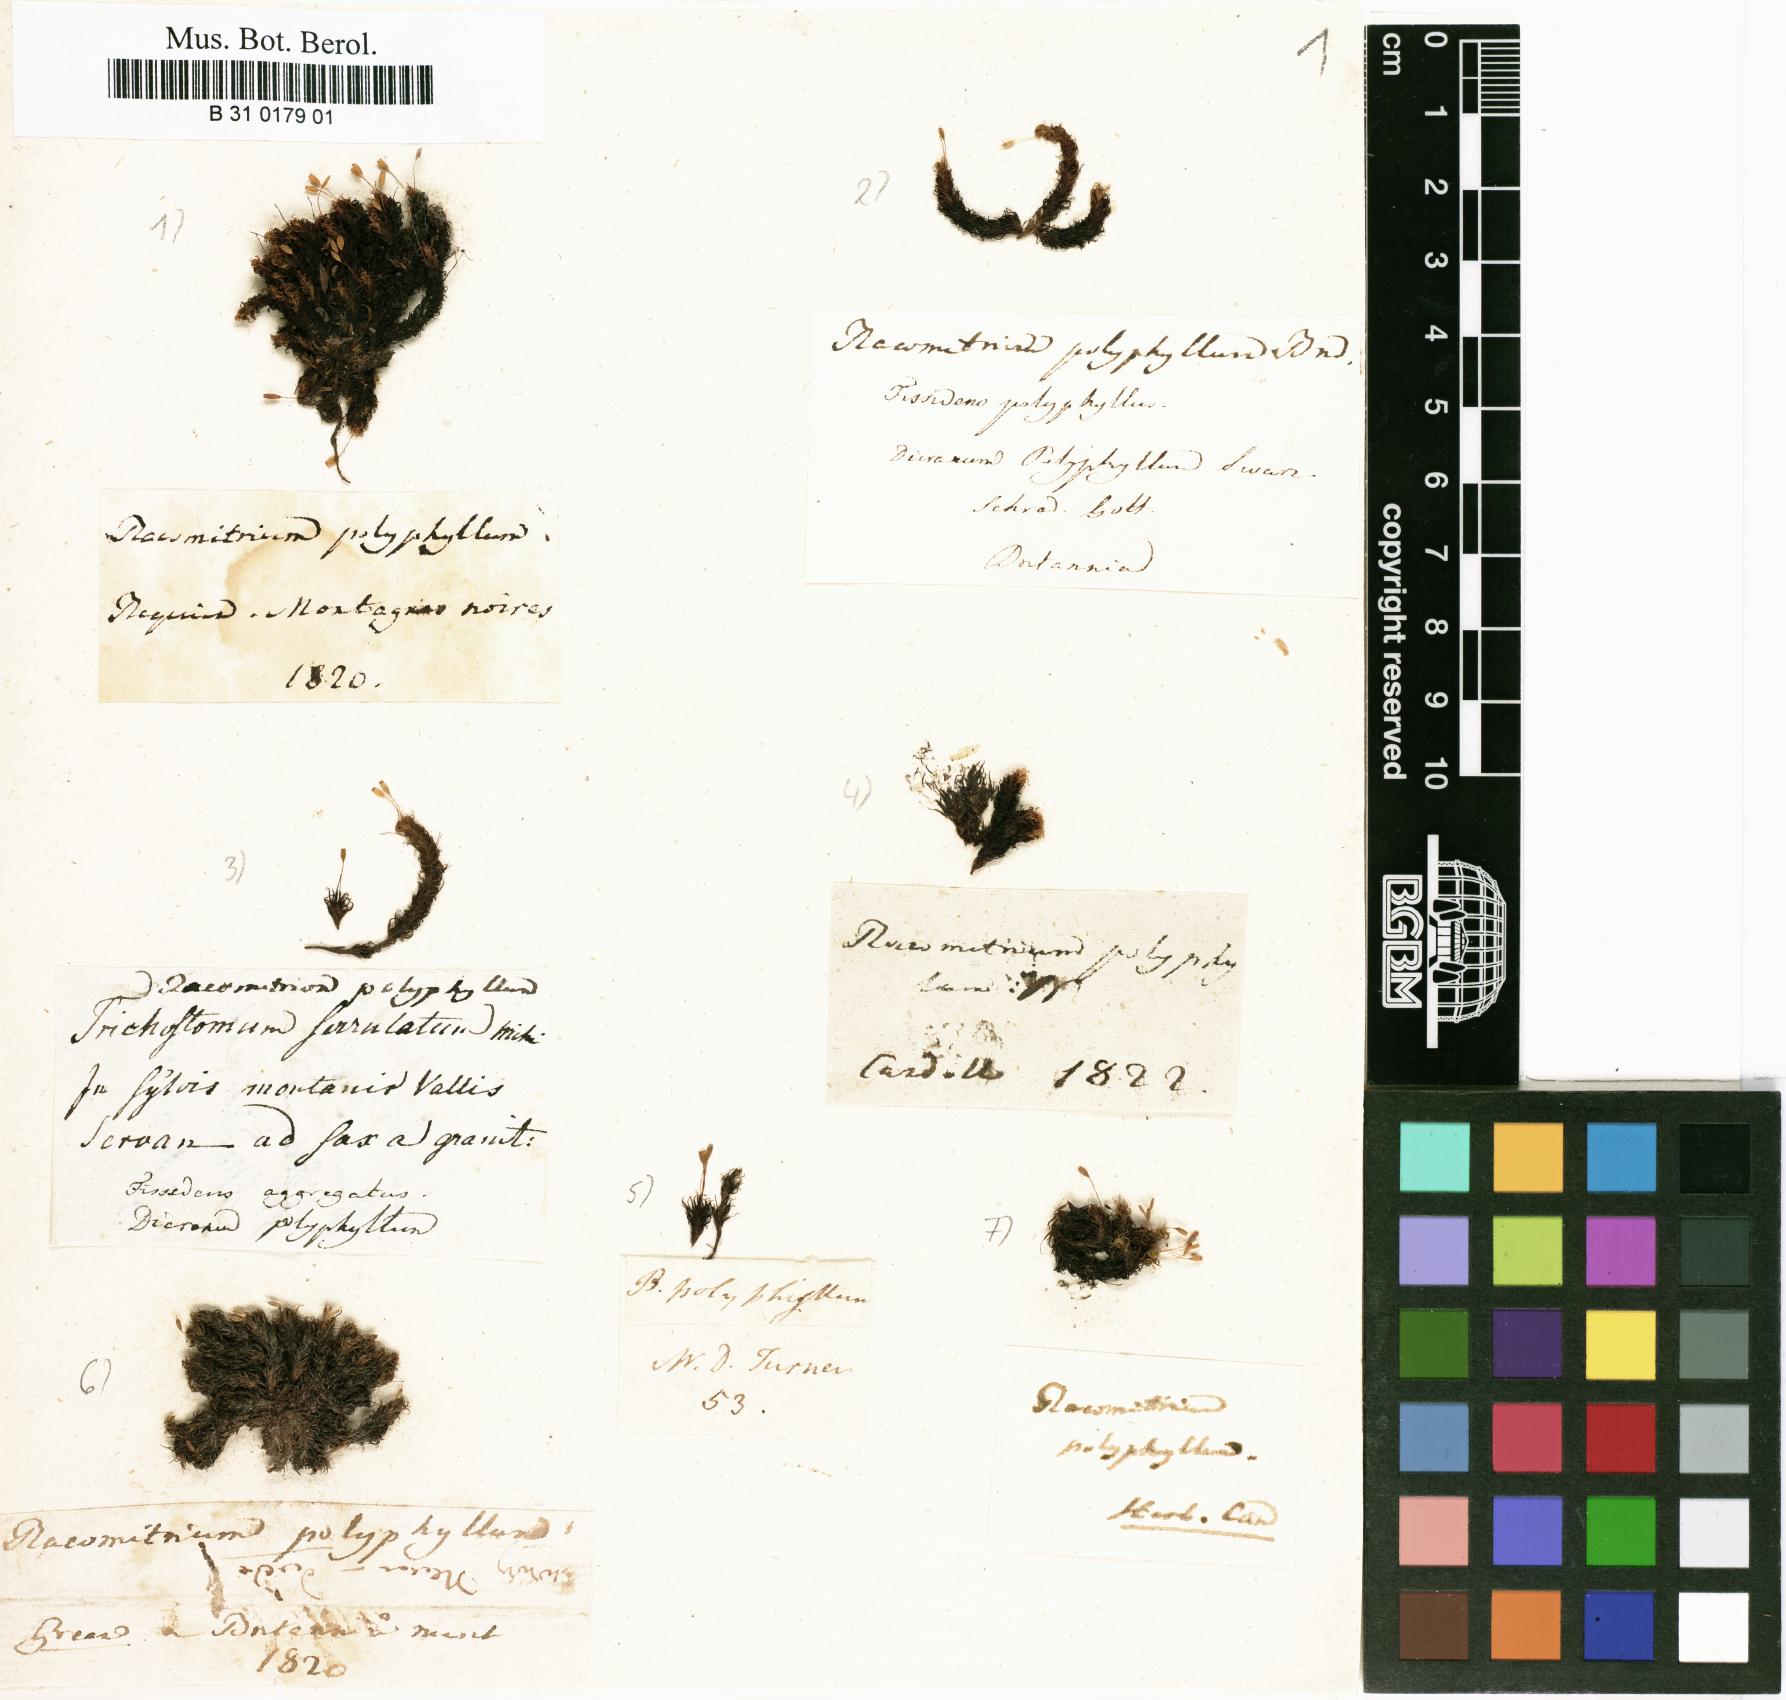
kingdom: Plantae
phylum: Bryophyta
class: Bryopsida
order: Grimmiales
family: Ptychomitriaceae
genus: Ptychomitrium
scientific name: Ptychomitrium polyphyllum
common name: Greater pincushion
